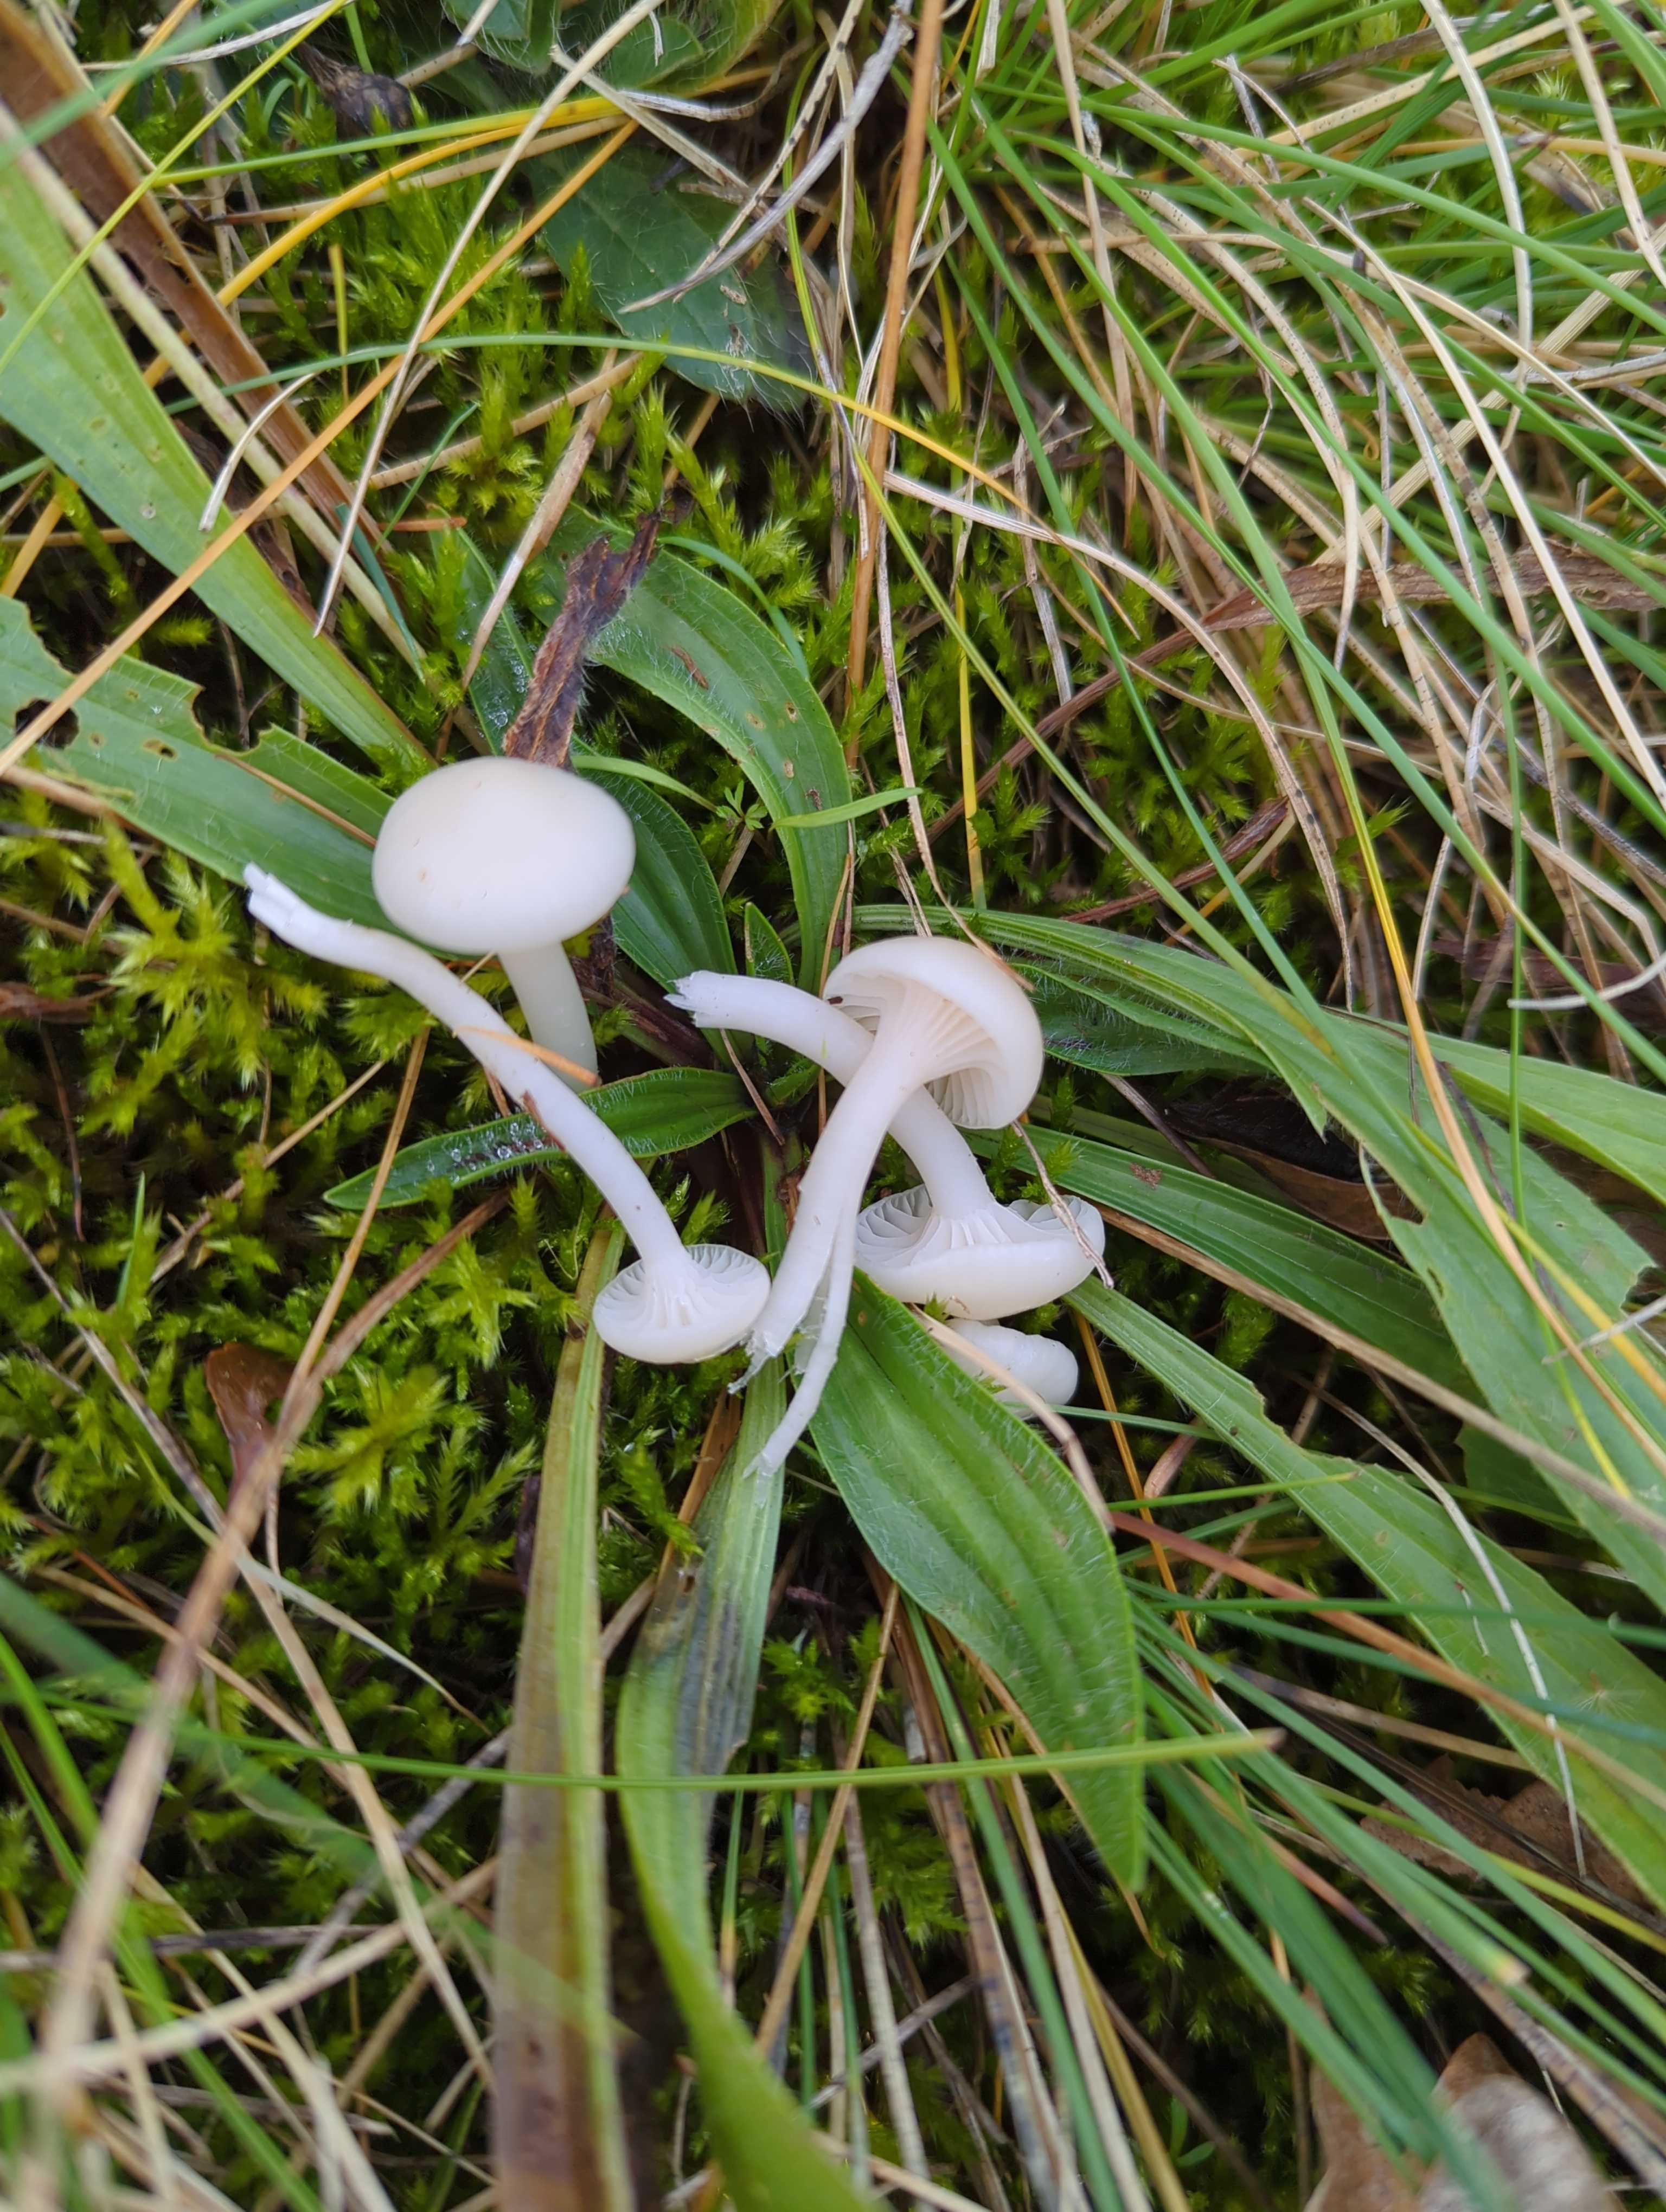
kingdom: Fungi
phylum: Basidiomycota
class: Agaricomycetes
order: Agaricales
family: Hygrophoraceae
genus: Cuphophyllus
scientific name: Cuphophyllus virgineus
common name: snehvid vokshat
